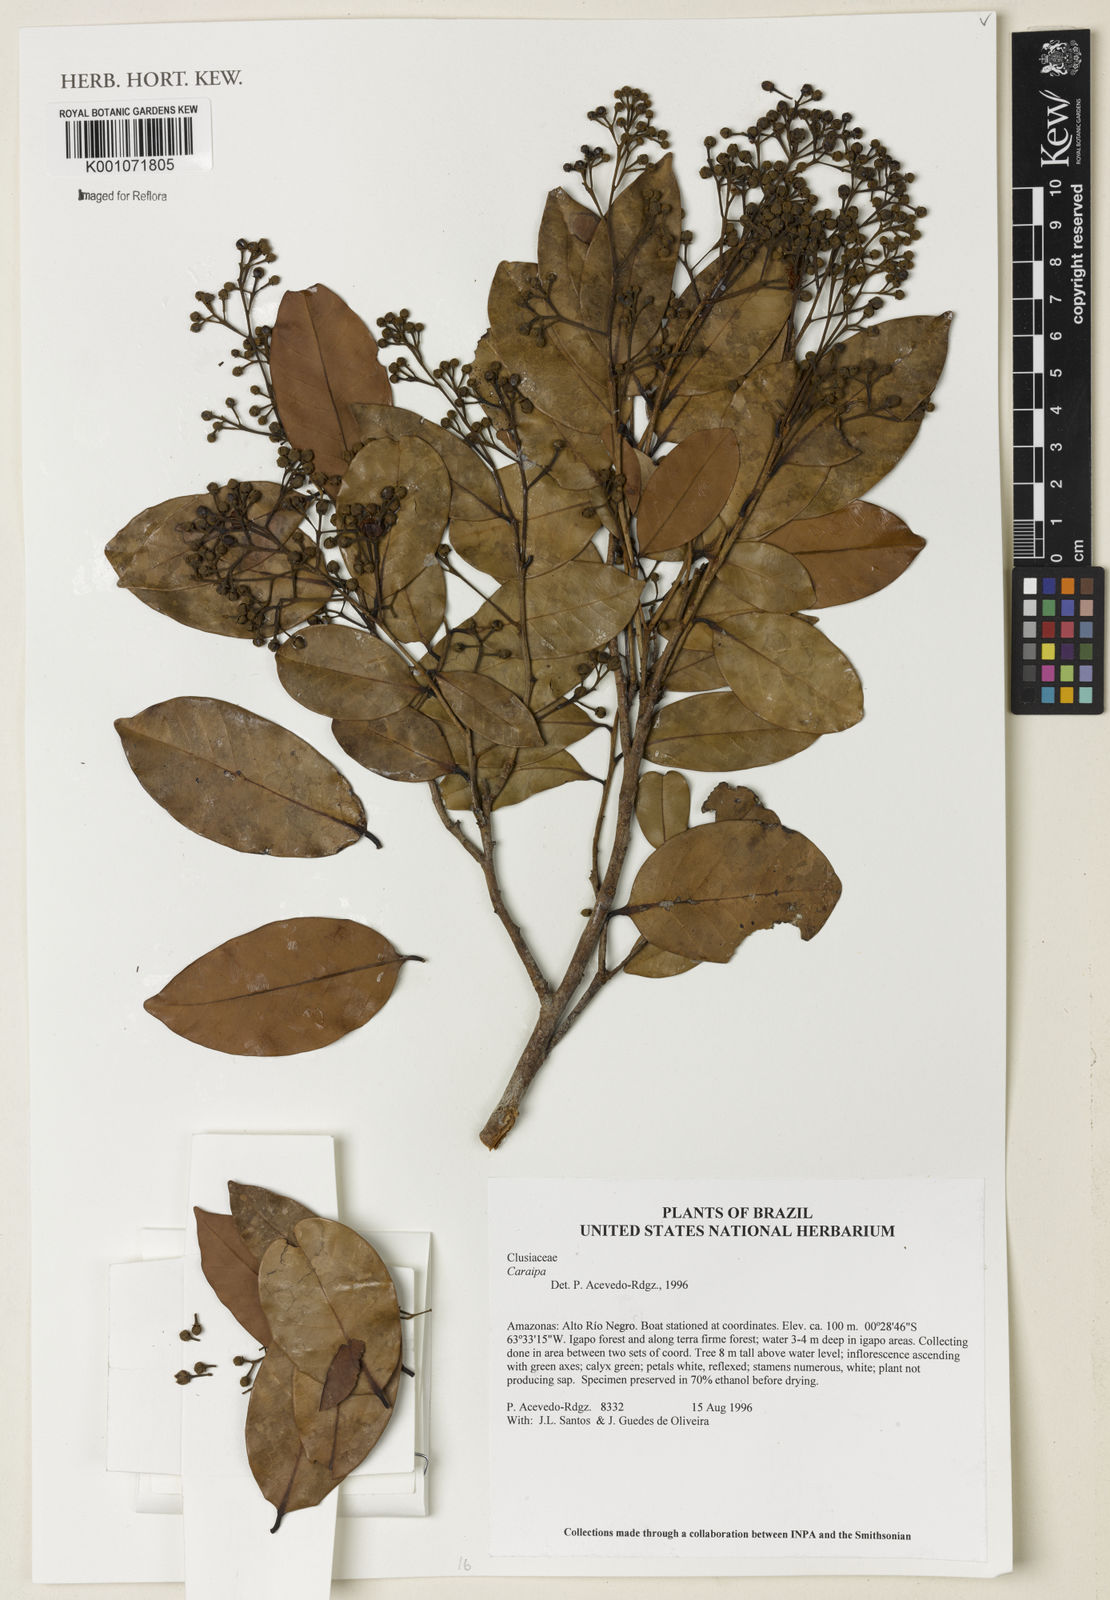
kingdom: Plantae
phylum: Tracheophyta
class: Magnoliopsida
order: Malpighiales
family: Calophyllaceae
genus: Caraipa
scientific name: Caraipa
